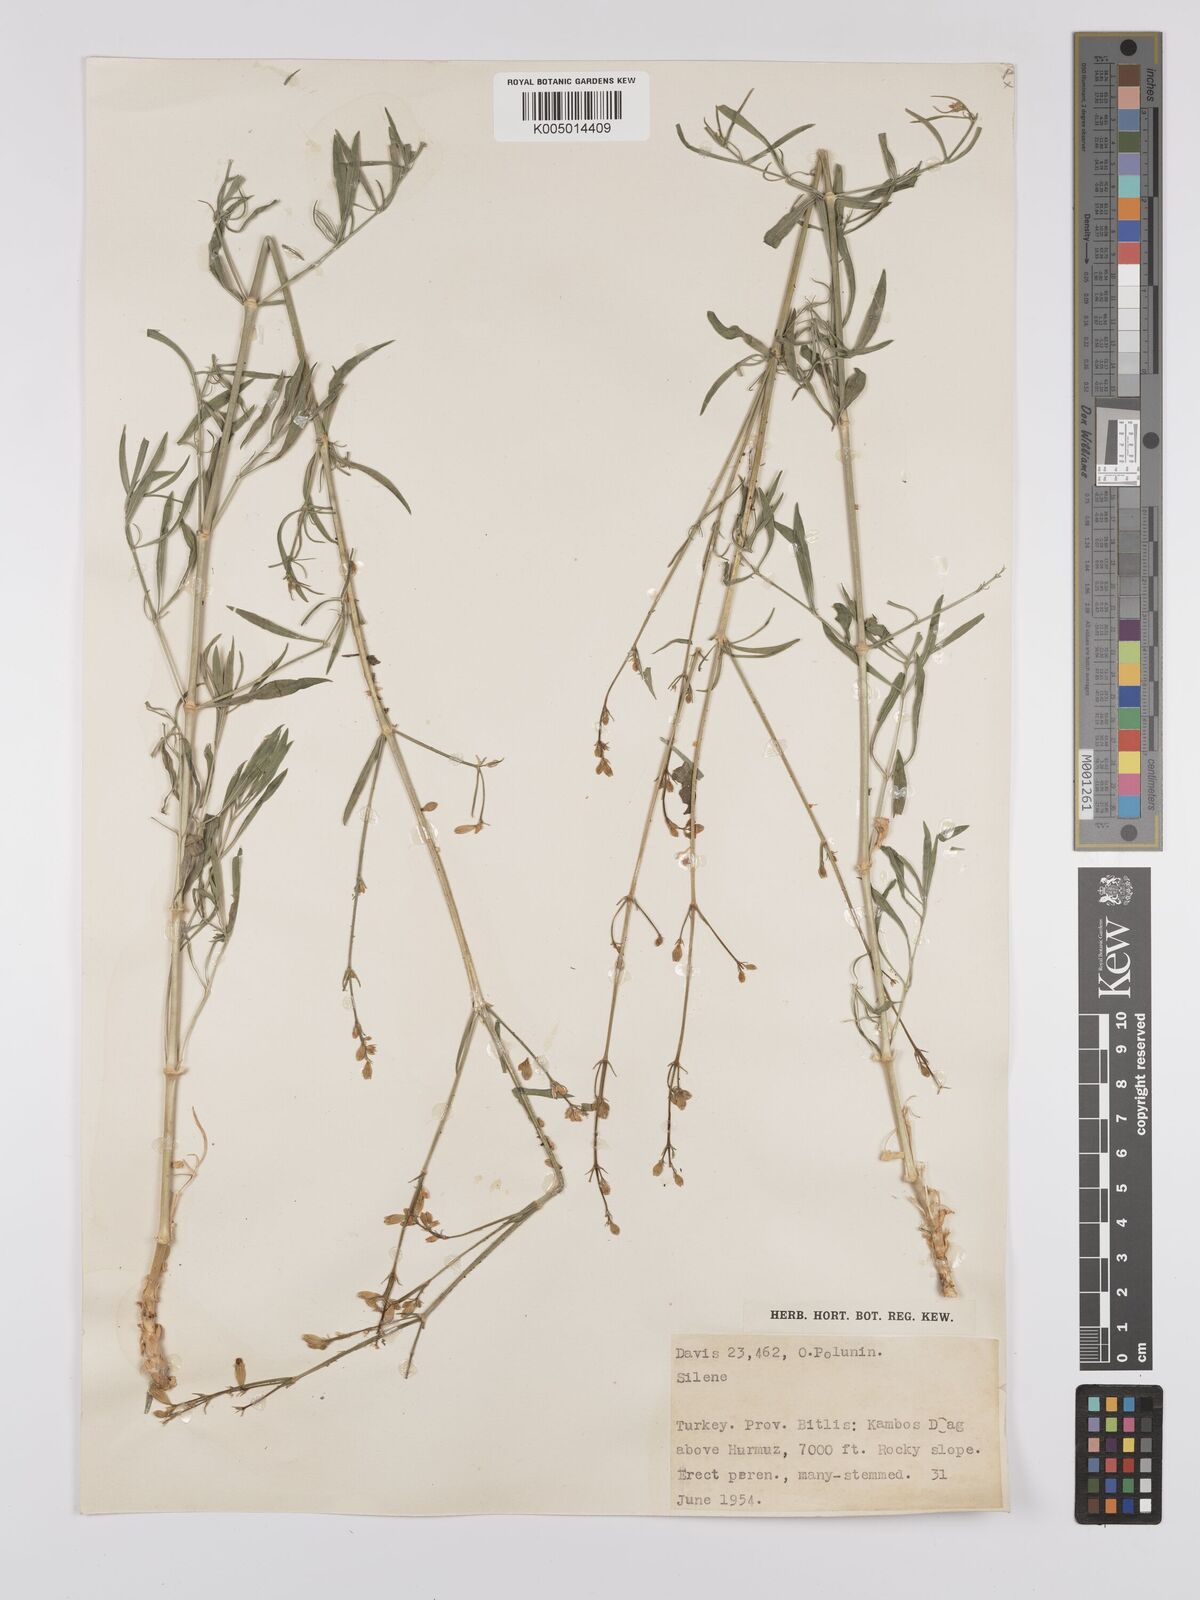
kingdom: Plantae
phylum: Tracheophyta
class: Magnoliopsida
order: Caryophyllales
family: Caryophyllaceae
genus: Silene
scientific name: Silene
